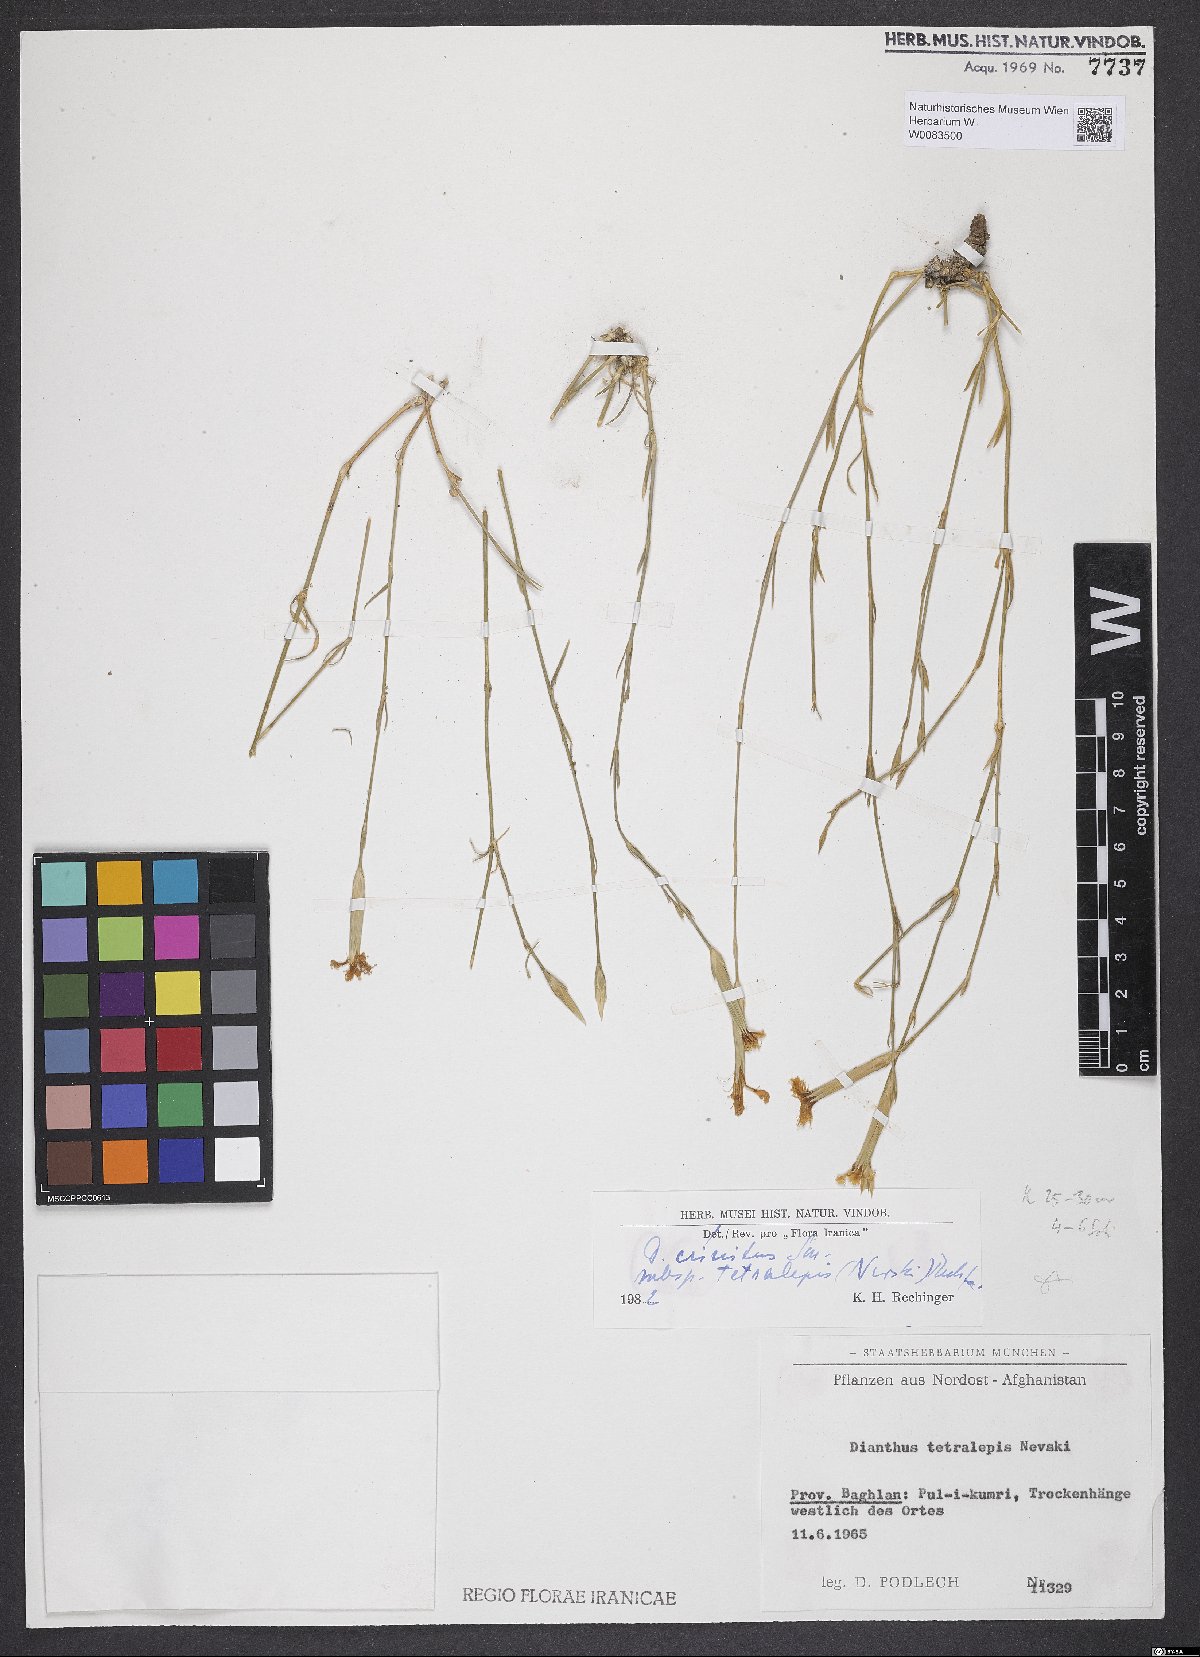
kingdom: Plantae
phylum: Tracheophyta
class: Magnoliopsida
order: Caryophyllales
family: Caryophyllaceae
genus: Dianthus
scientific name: Dianthus crinitus
